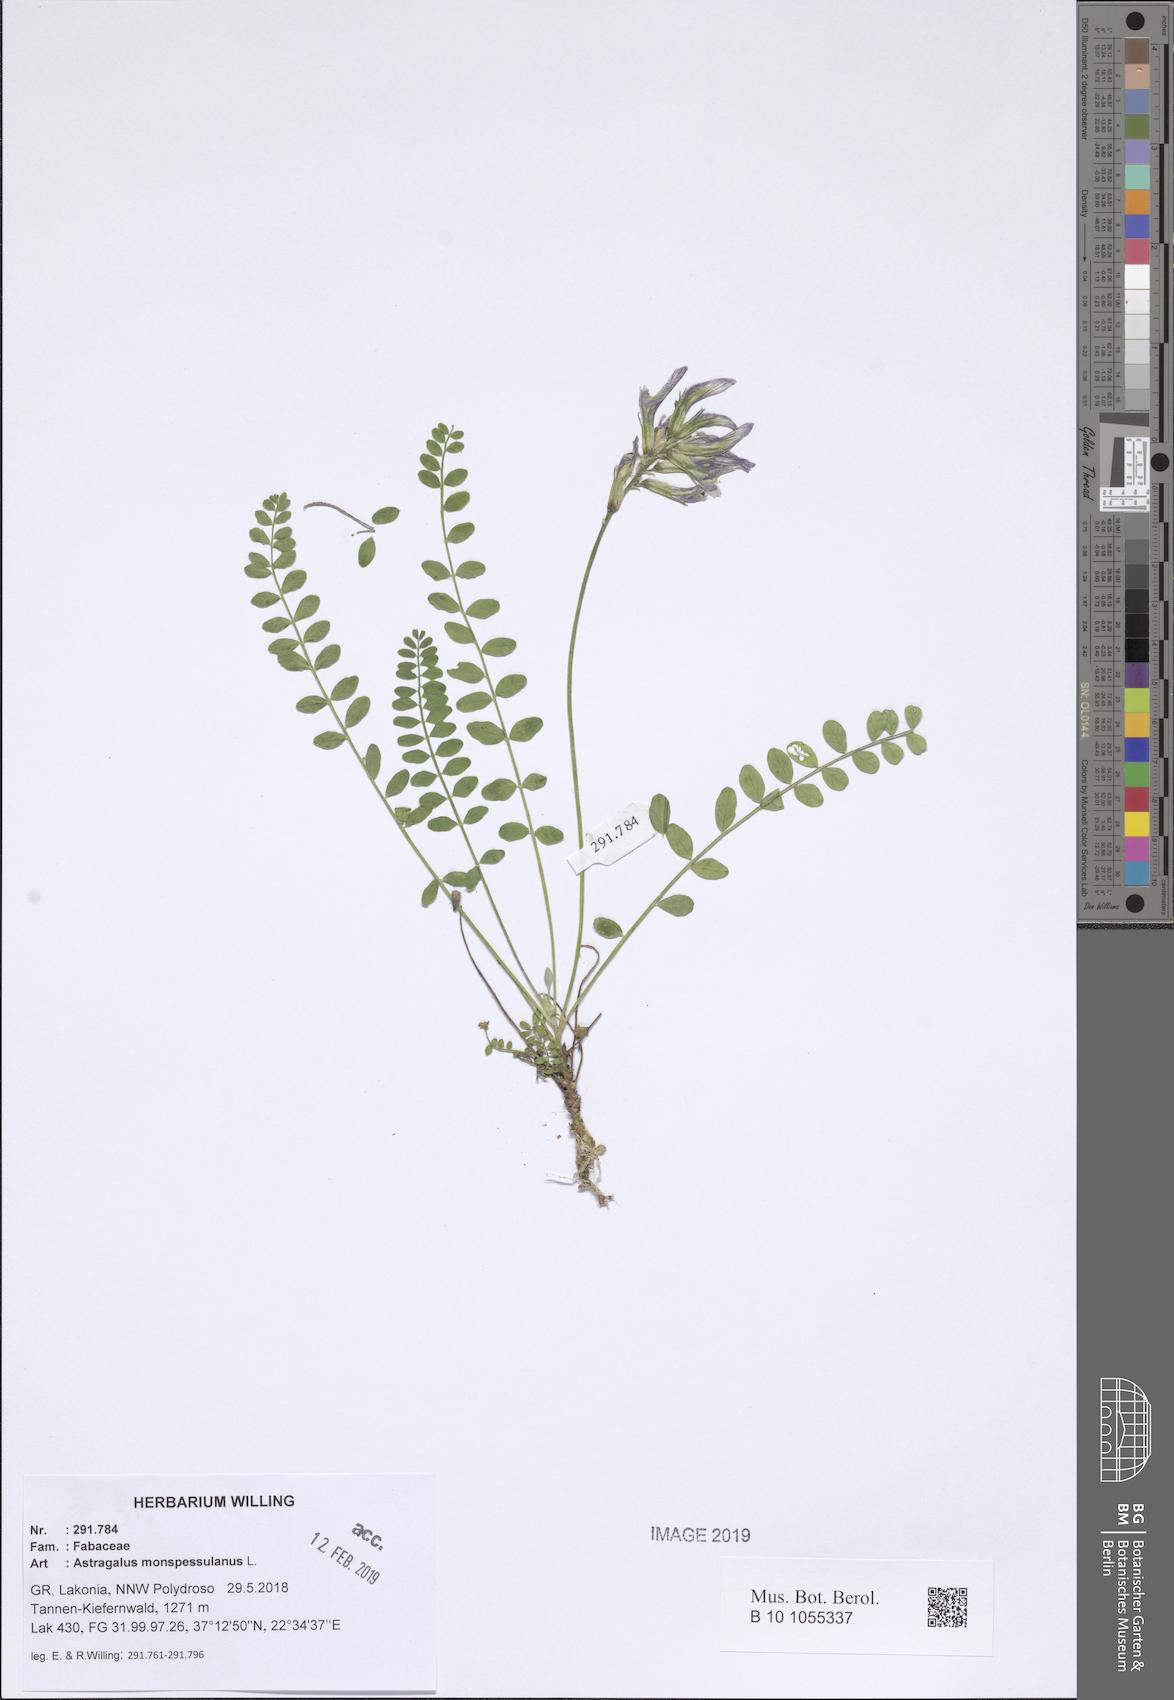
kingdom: Plantae
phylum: Tracheophyta
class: Magnoliopsida
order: Fabales
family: Fabaceae
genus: Astragalus
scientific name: Astragalus monspessulanus
